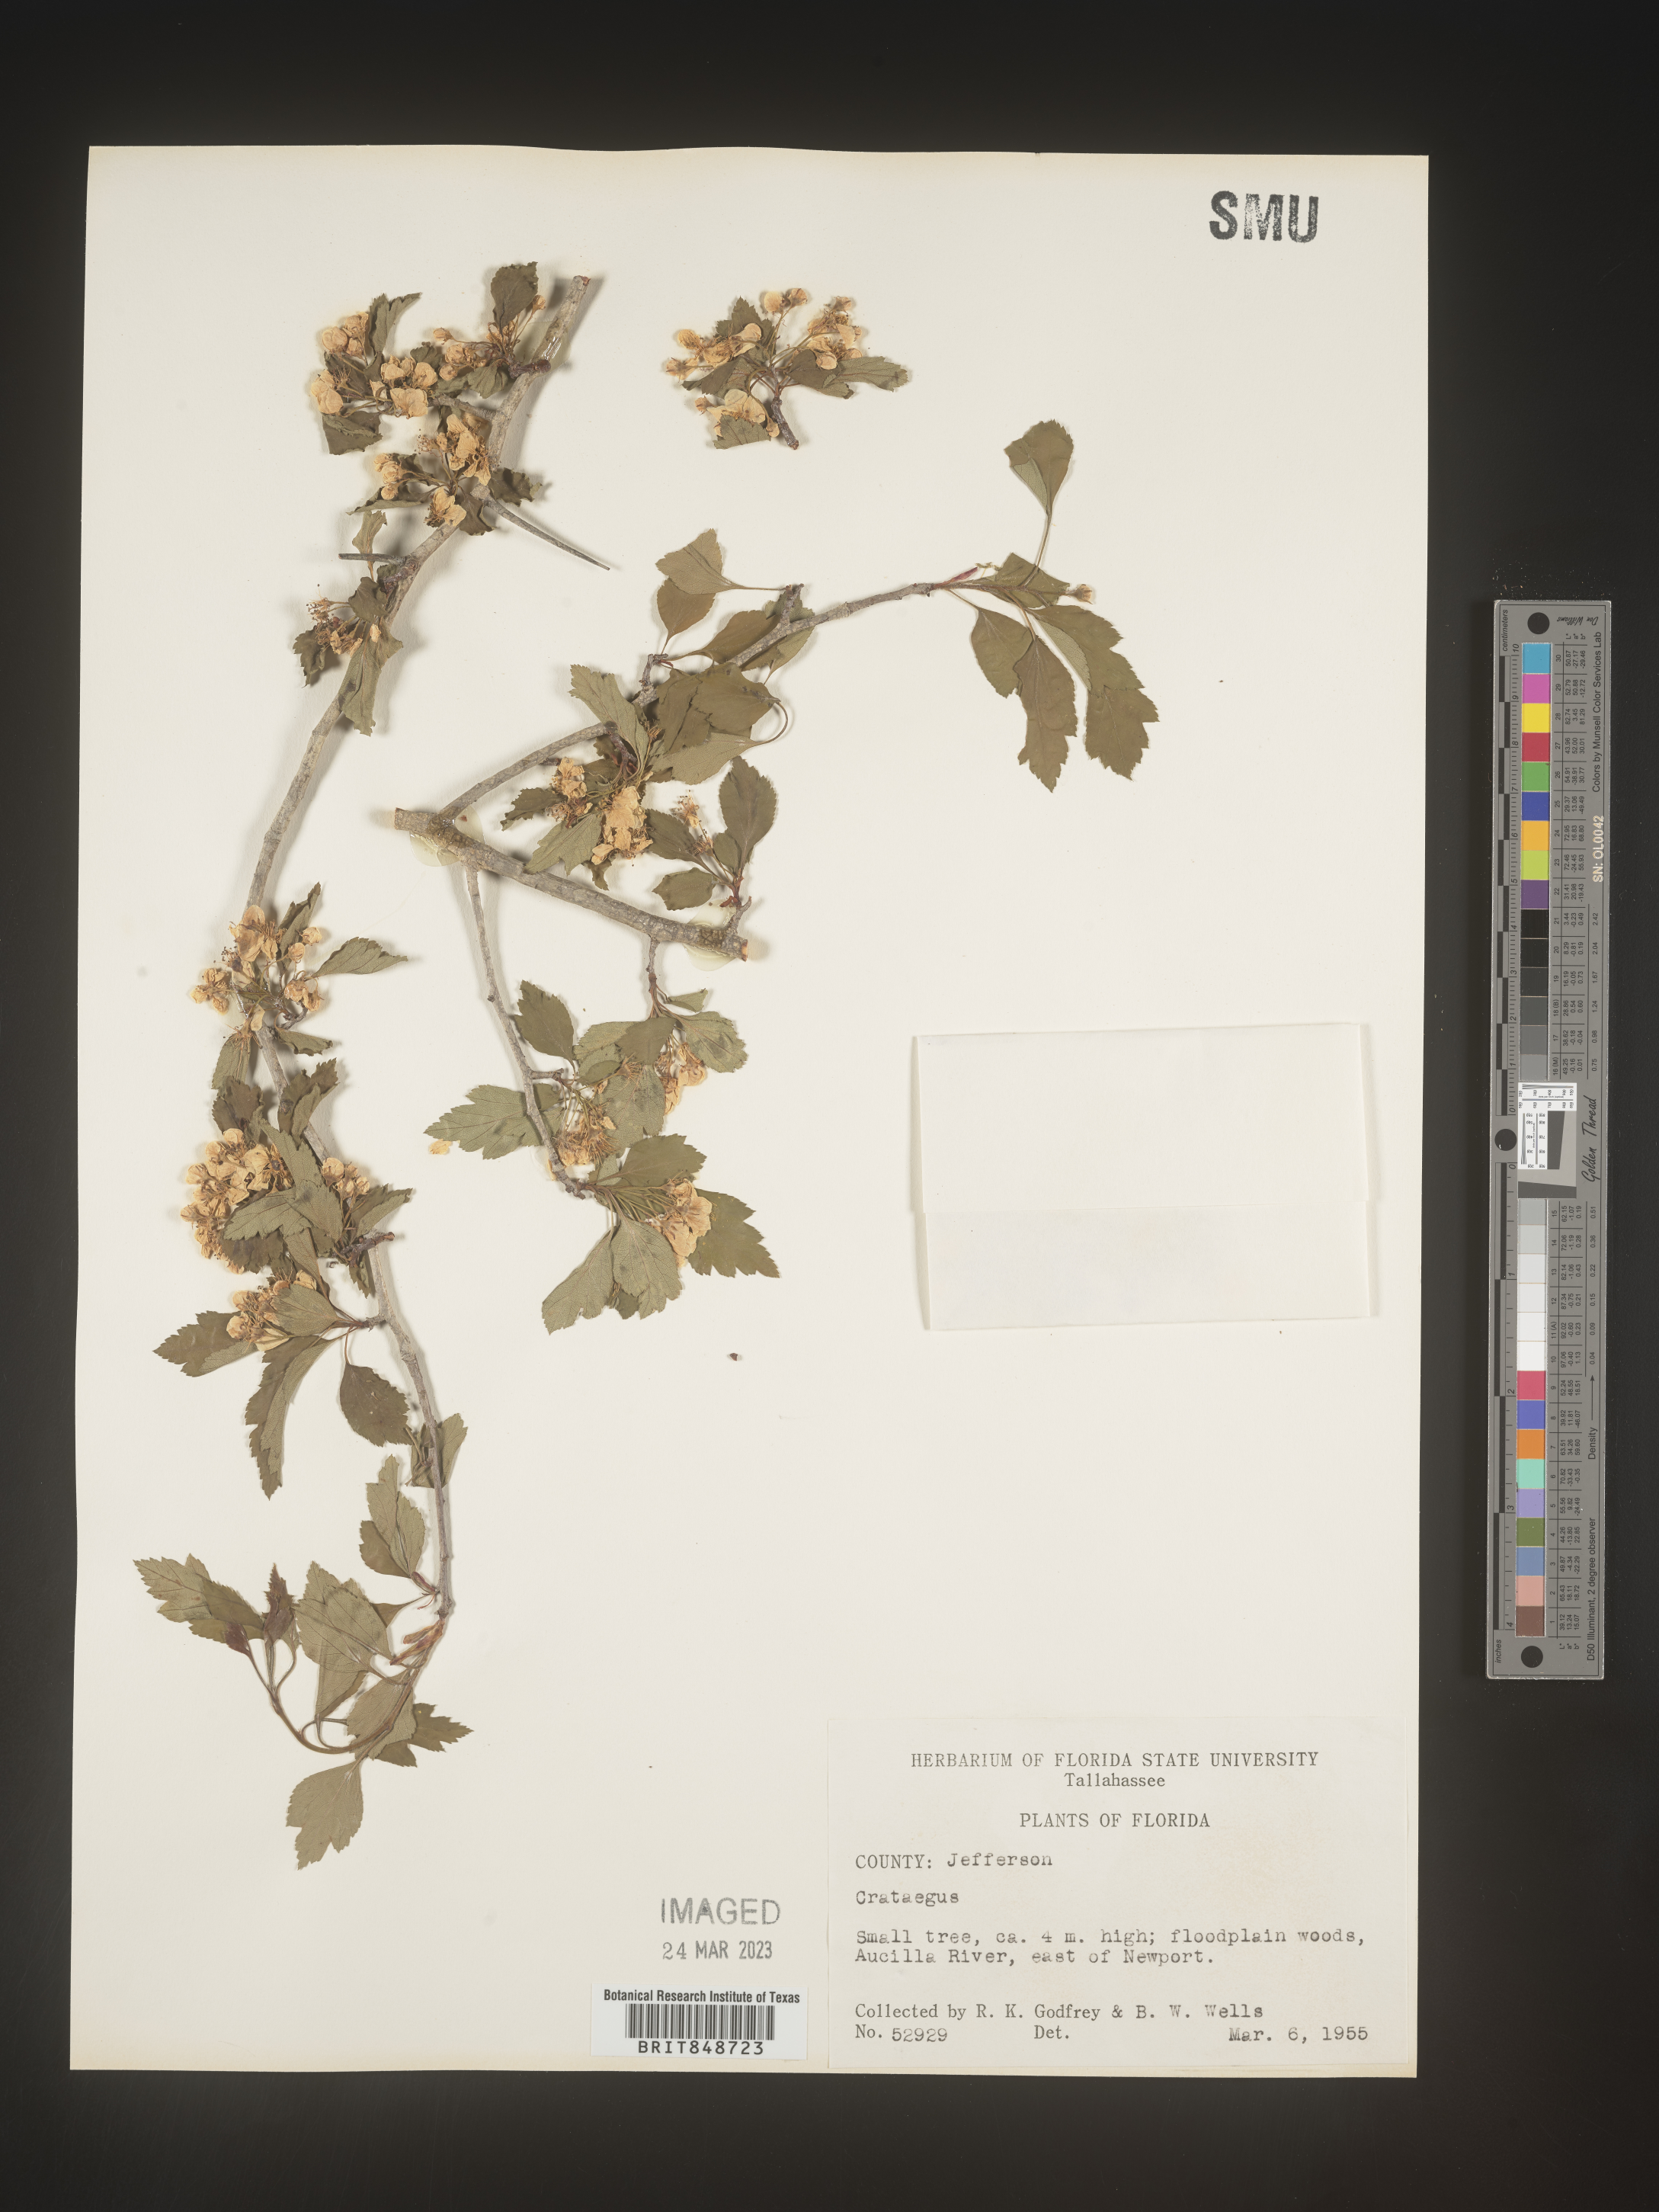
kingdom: Plantae
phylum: Tracheophyta
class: Magnoliopsida
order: Rosales
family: Rosaceae
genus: Crataegus
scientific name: Crataegus
